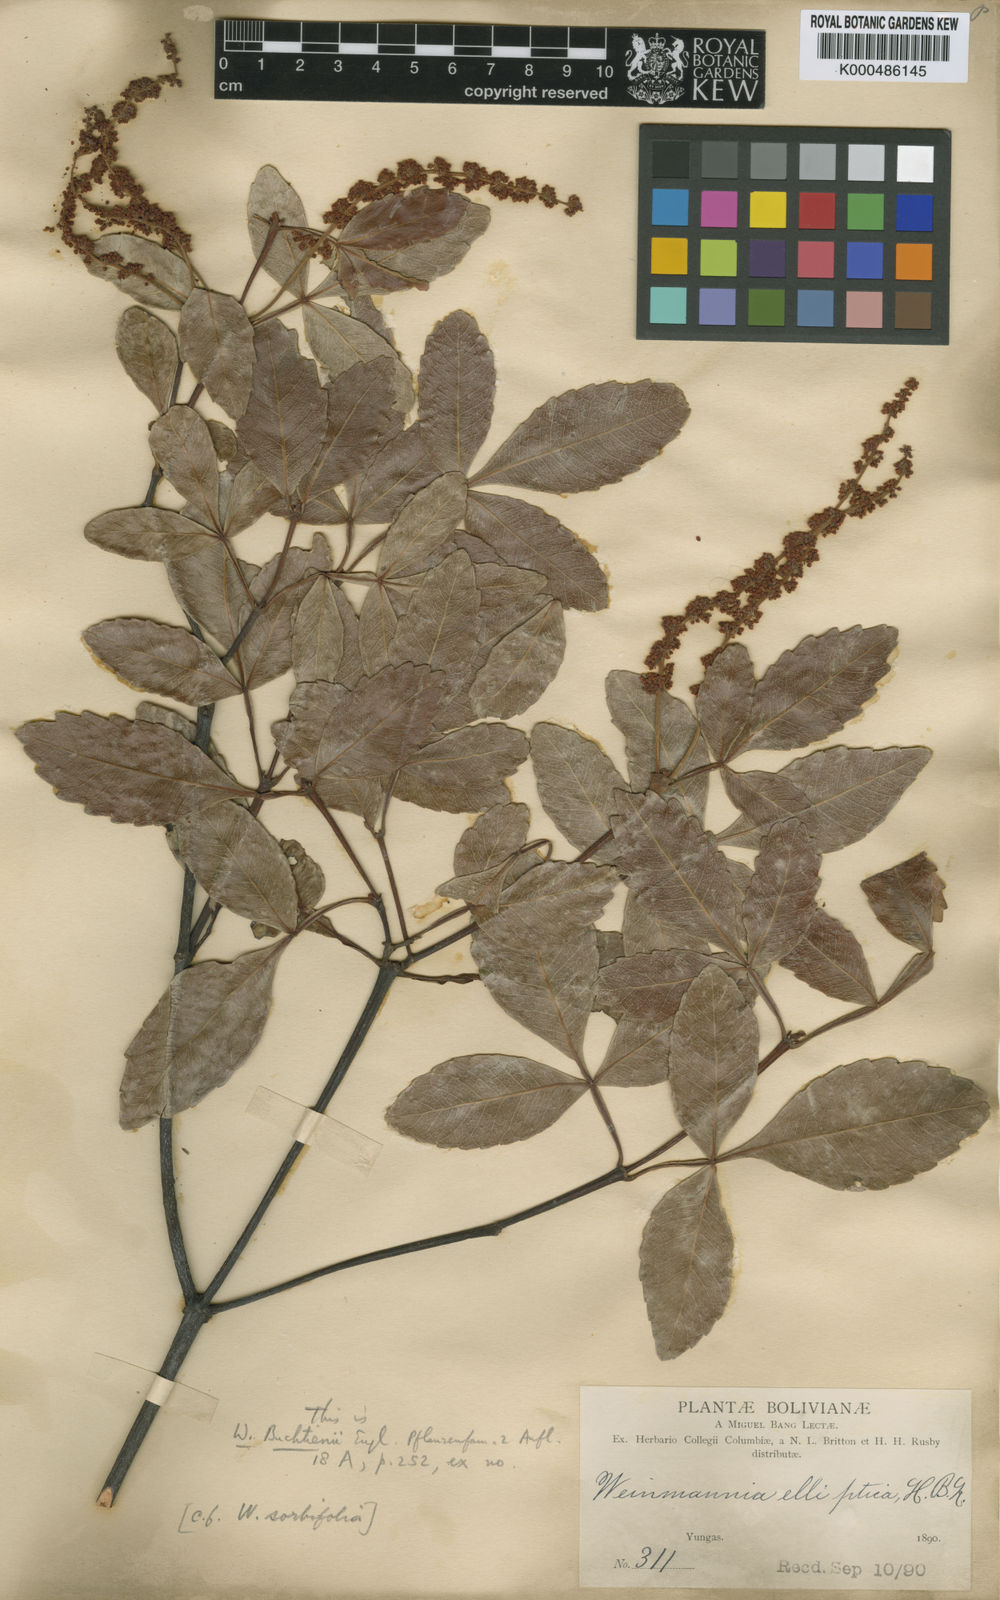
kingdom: Plantae
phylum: Tracheophyta
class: Magnoliopsida
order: Oxalidales
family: Cunoniaceae
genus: Weinmannia
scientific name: Weinmannia boliviensis
